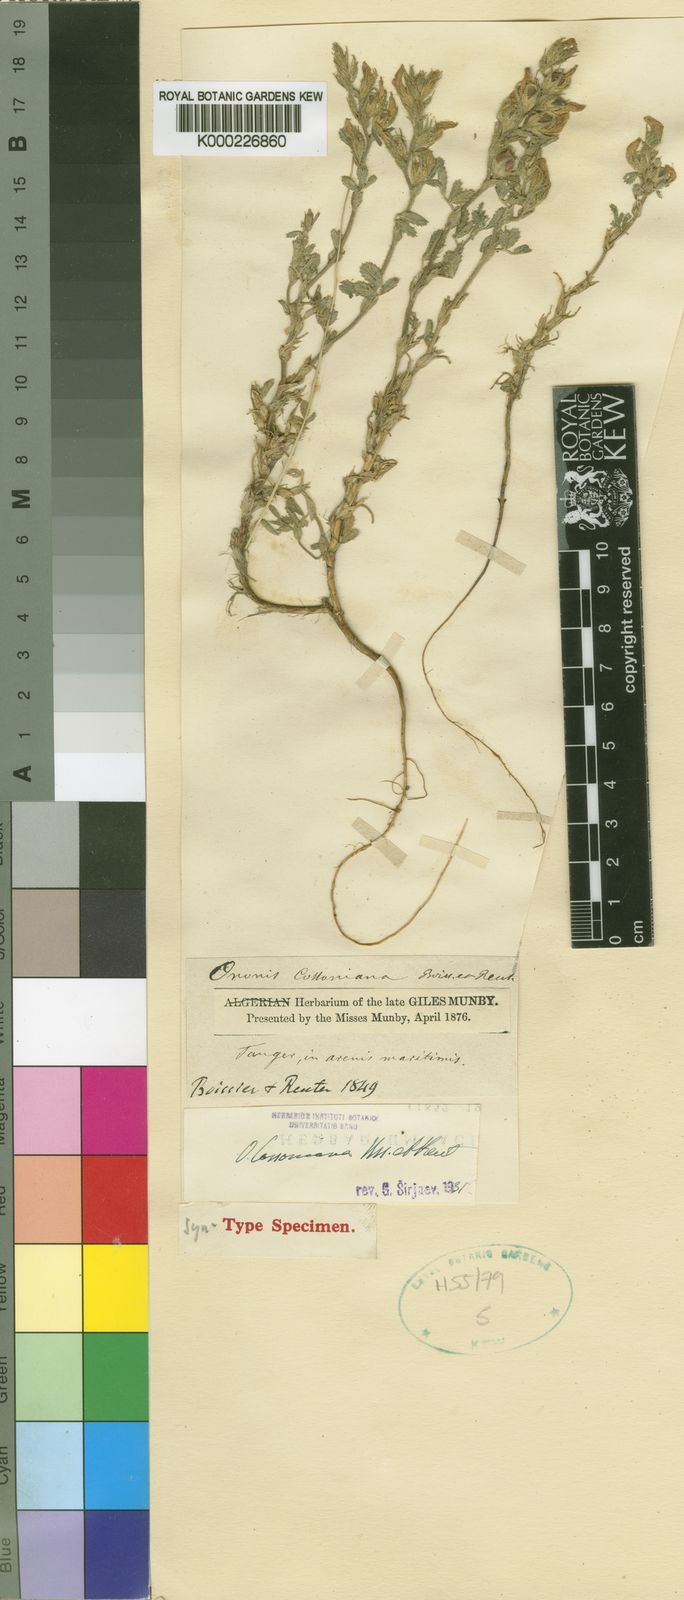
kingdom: Plantae
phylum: Tracheophyta
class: Magnoliopsida
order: Fabales
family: Fabaceae
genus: Ononis
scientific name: Ononis cossoniana
